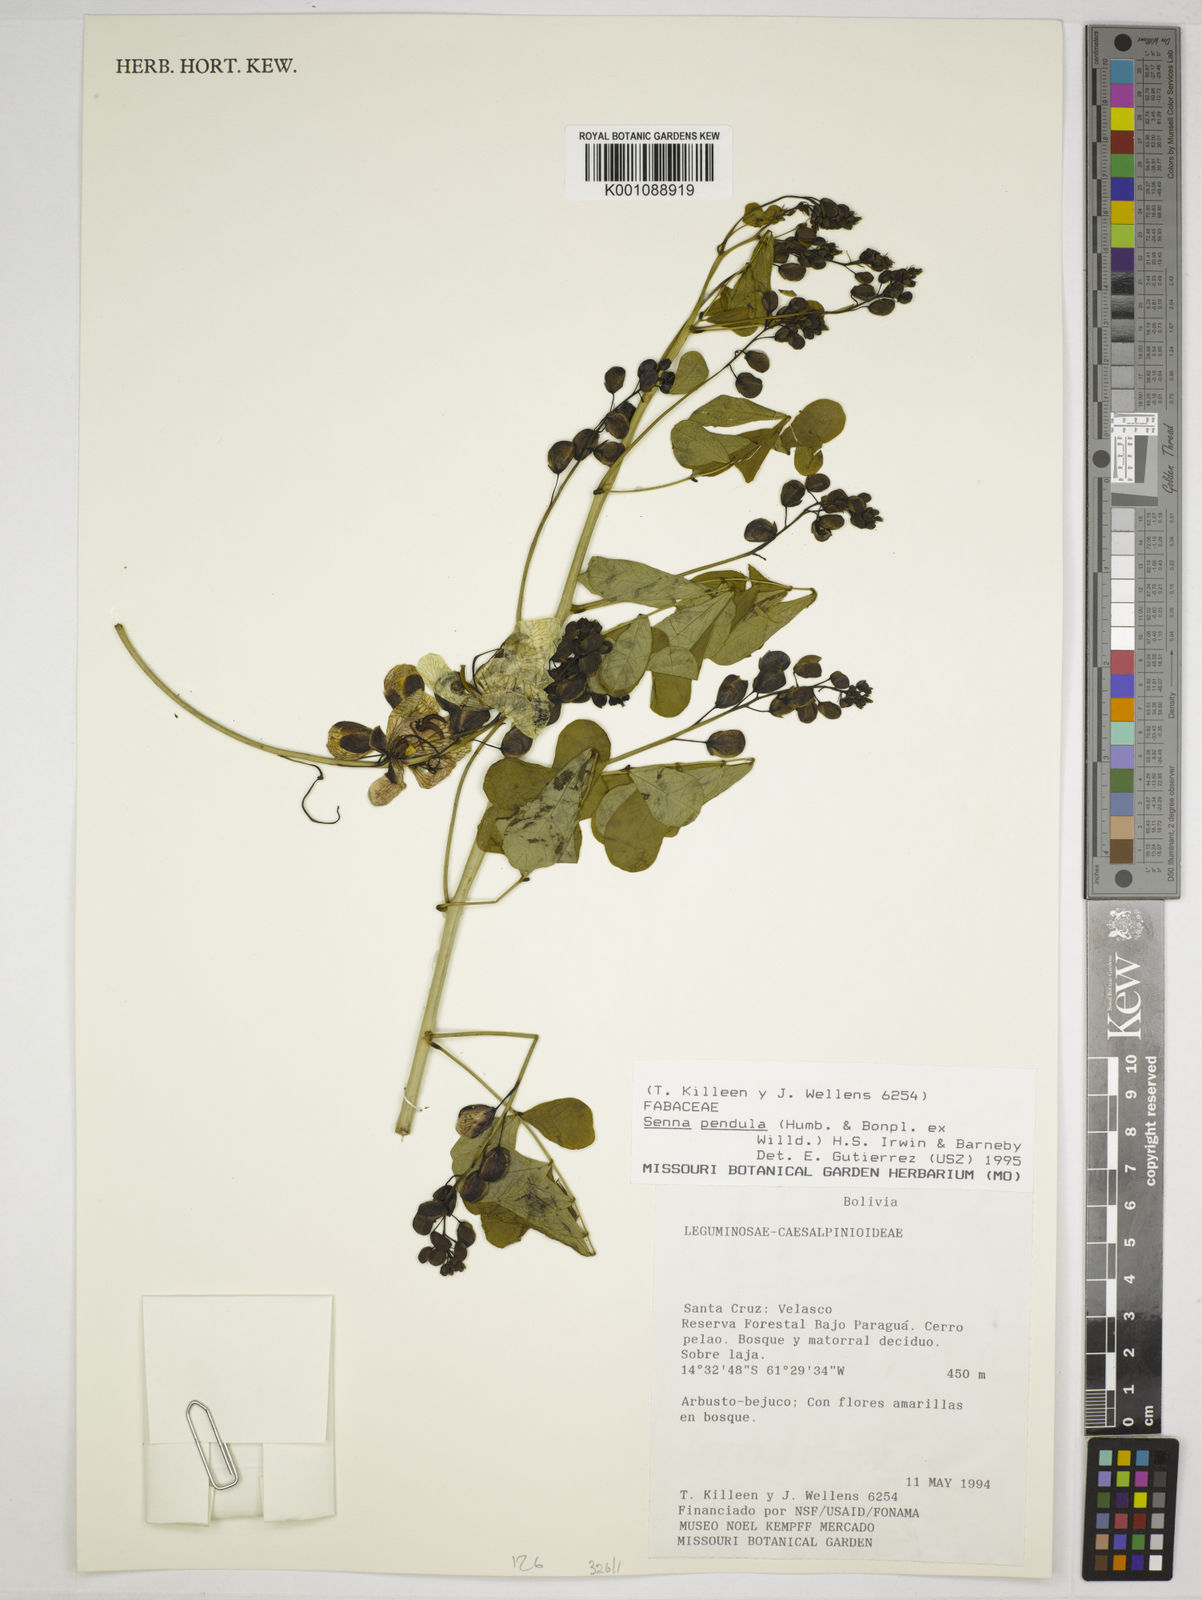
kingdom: Plantae
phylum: Tracheophyta
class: Magnoliopsida
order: Fabales
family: Fabaceae
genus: Senna
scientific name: Senna pendula
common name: Easter cassia
